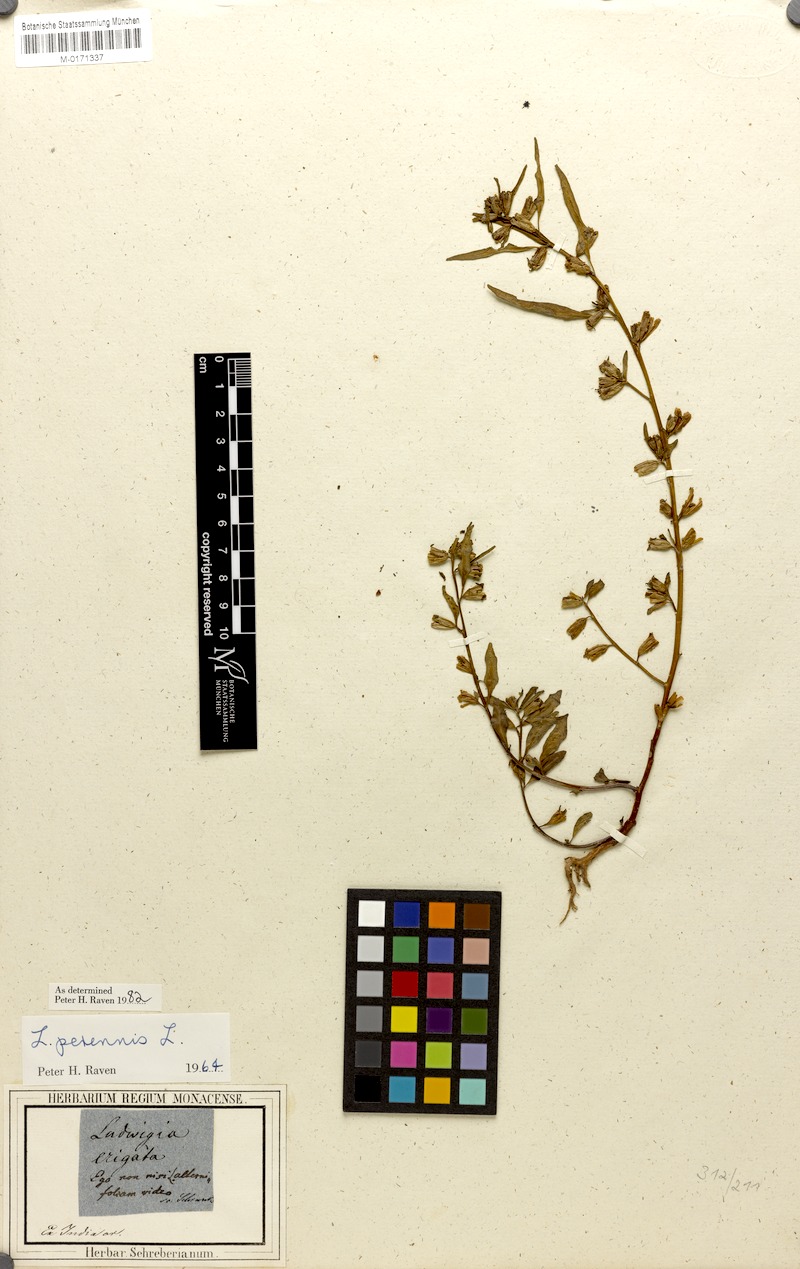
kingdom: Plantae
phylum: Tracheophyta
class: Magnoliopsida
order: Myrtales
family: Onagraceae
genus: Ludwigia
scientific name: Ludwigia perennis
